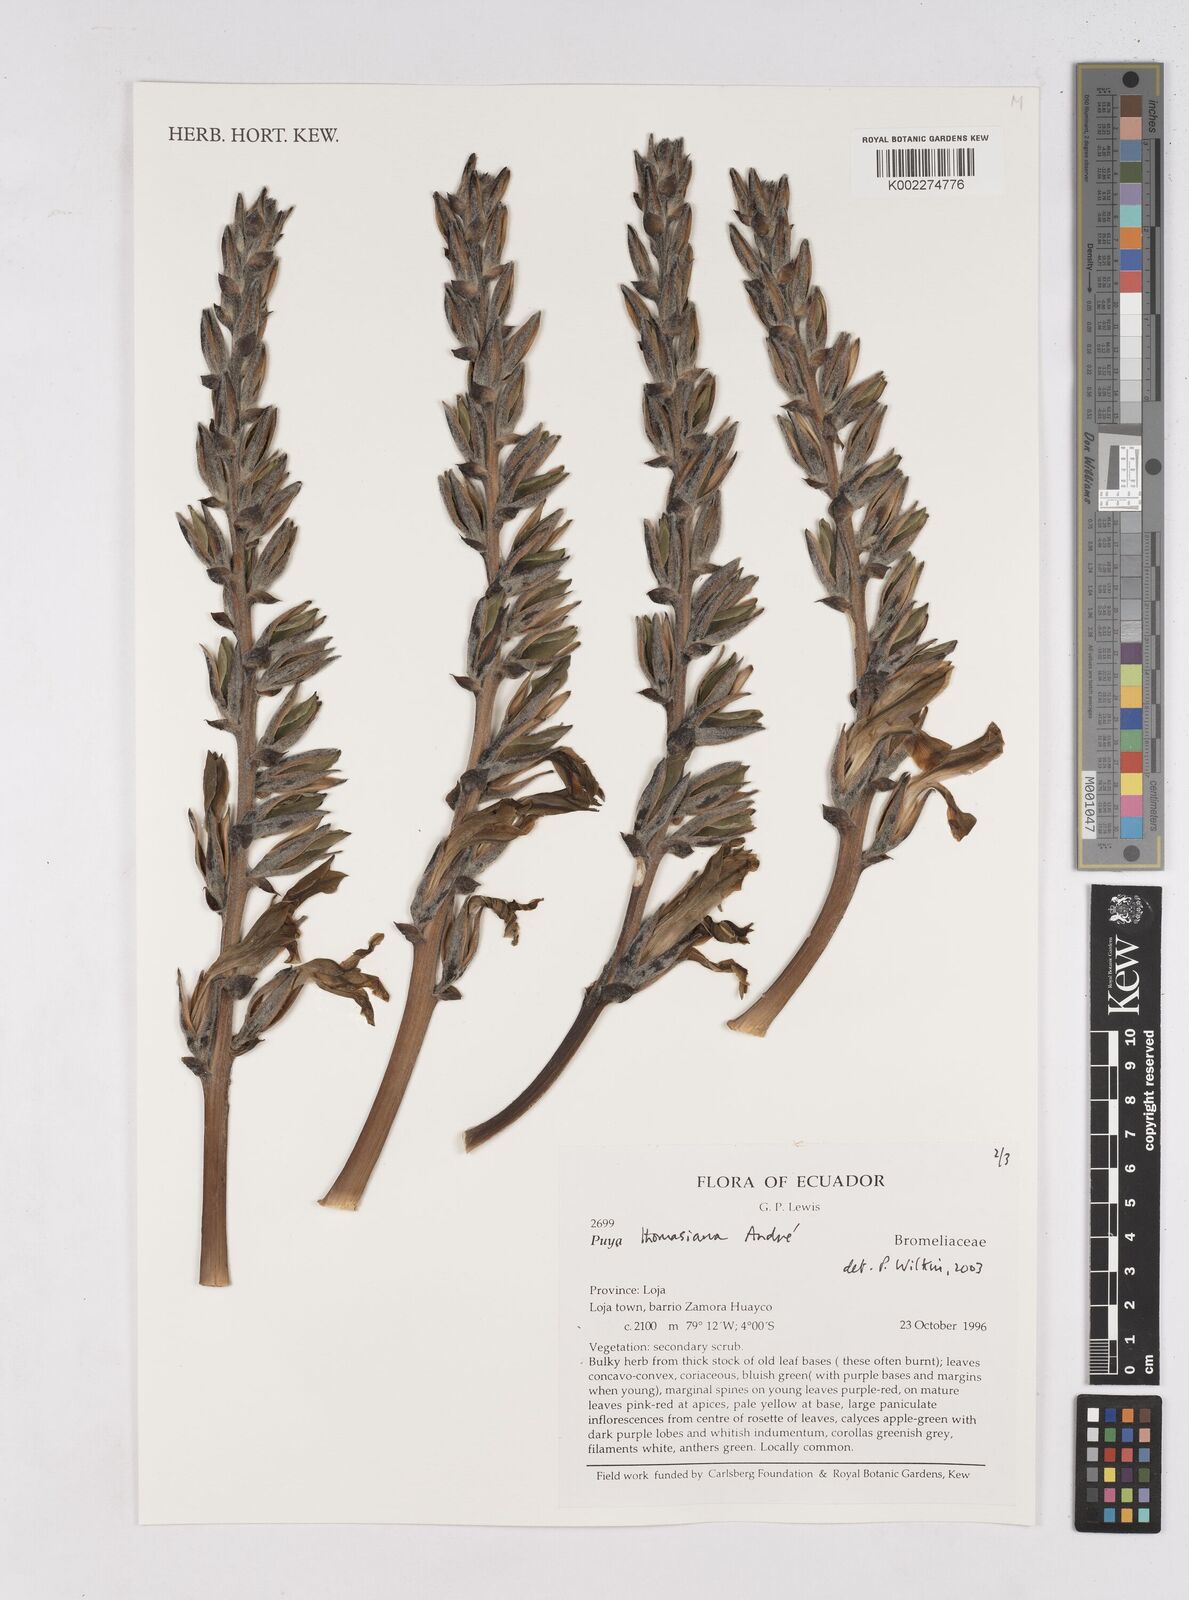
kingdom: Plantae
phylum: Tracheophyta
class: Liliopsida
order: Poales
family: Bromeliaceae
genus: Puya
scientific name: Puya thomasiana
